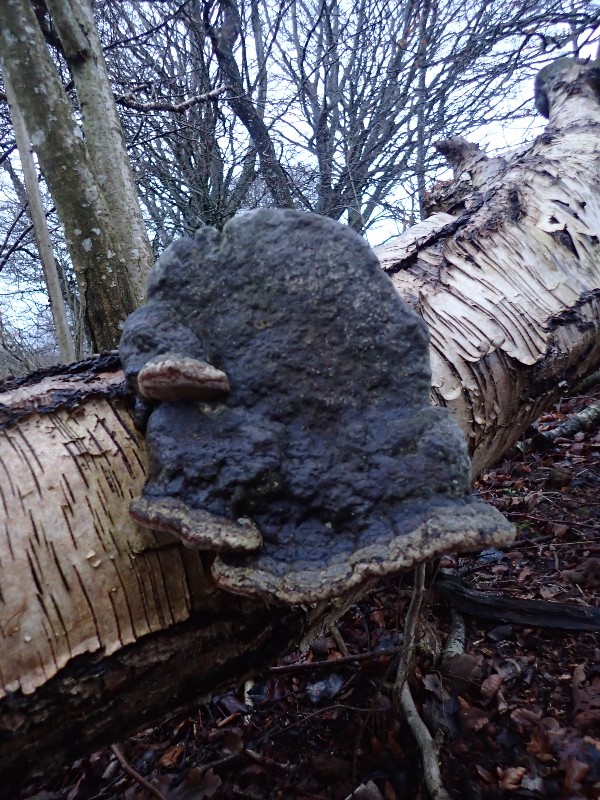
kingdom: Fungi
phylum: Basidiomycota
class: Agaricomycetes
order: Polyporales
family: Polyporaceae
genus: Fomes
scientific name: Fomes fomentarius
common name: tøndersvamp
